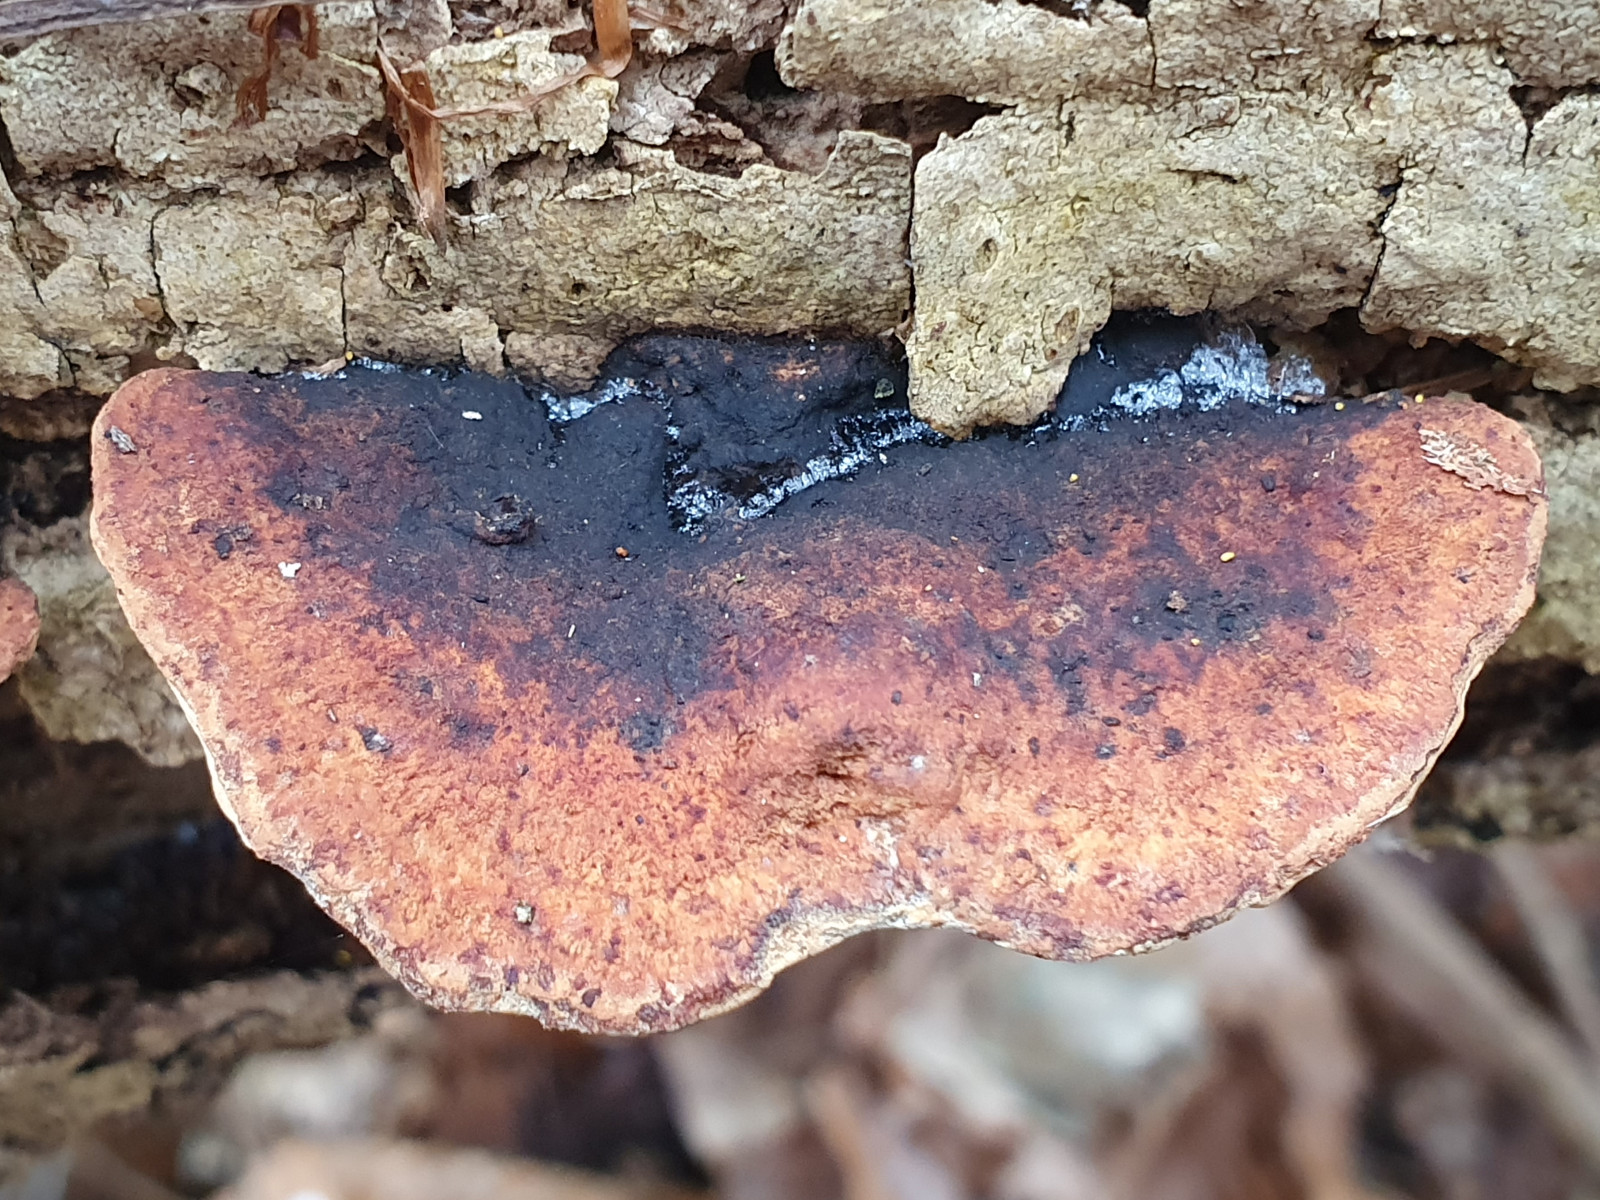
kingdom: Fungi
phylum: Basidiomycota
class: Agaricomycetes
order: Polyporales
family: Incrustoporiaceae
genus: Skeletocutis
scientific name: Skeletocutis nemoralis
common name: stor krystalporesvamp
